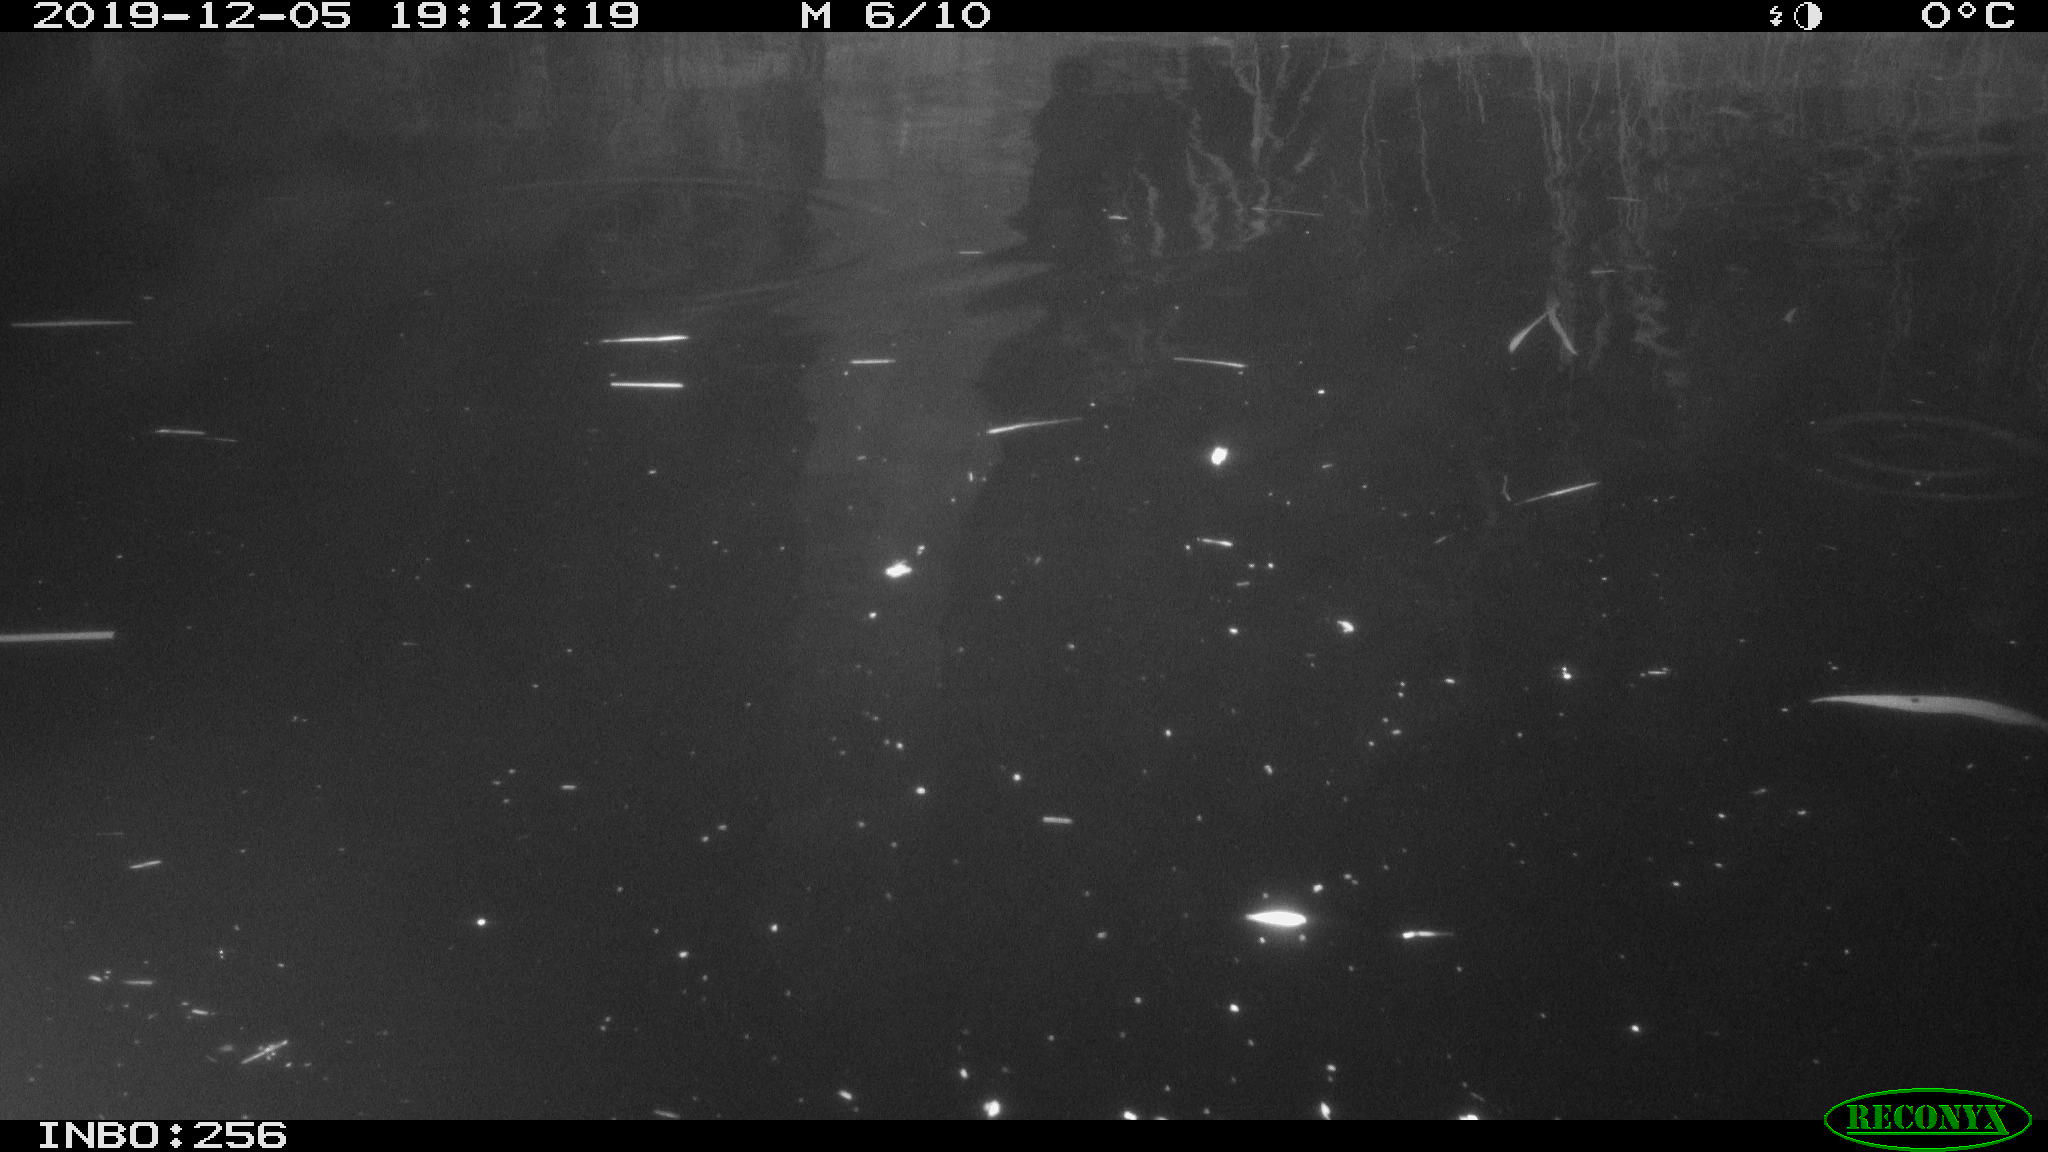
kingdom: Animalia
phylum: Chordata
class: Mammalia
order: Rodentia
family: Cricetidae
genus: Ondatra
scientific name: Ondatra zibethicus
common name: Muskrat
